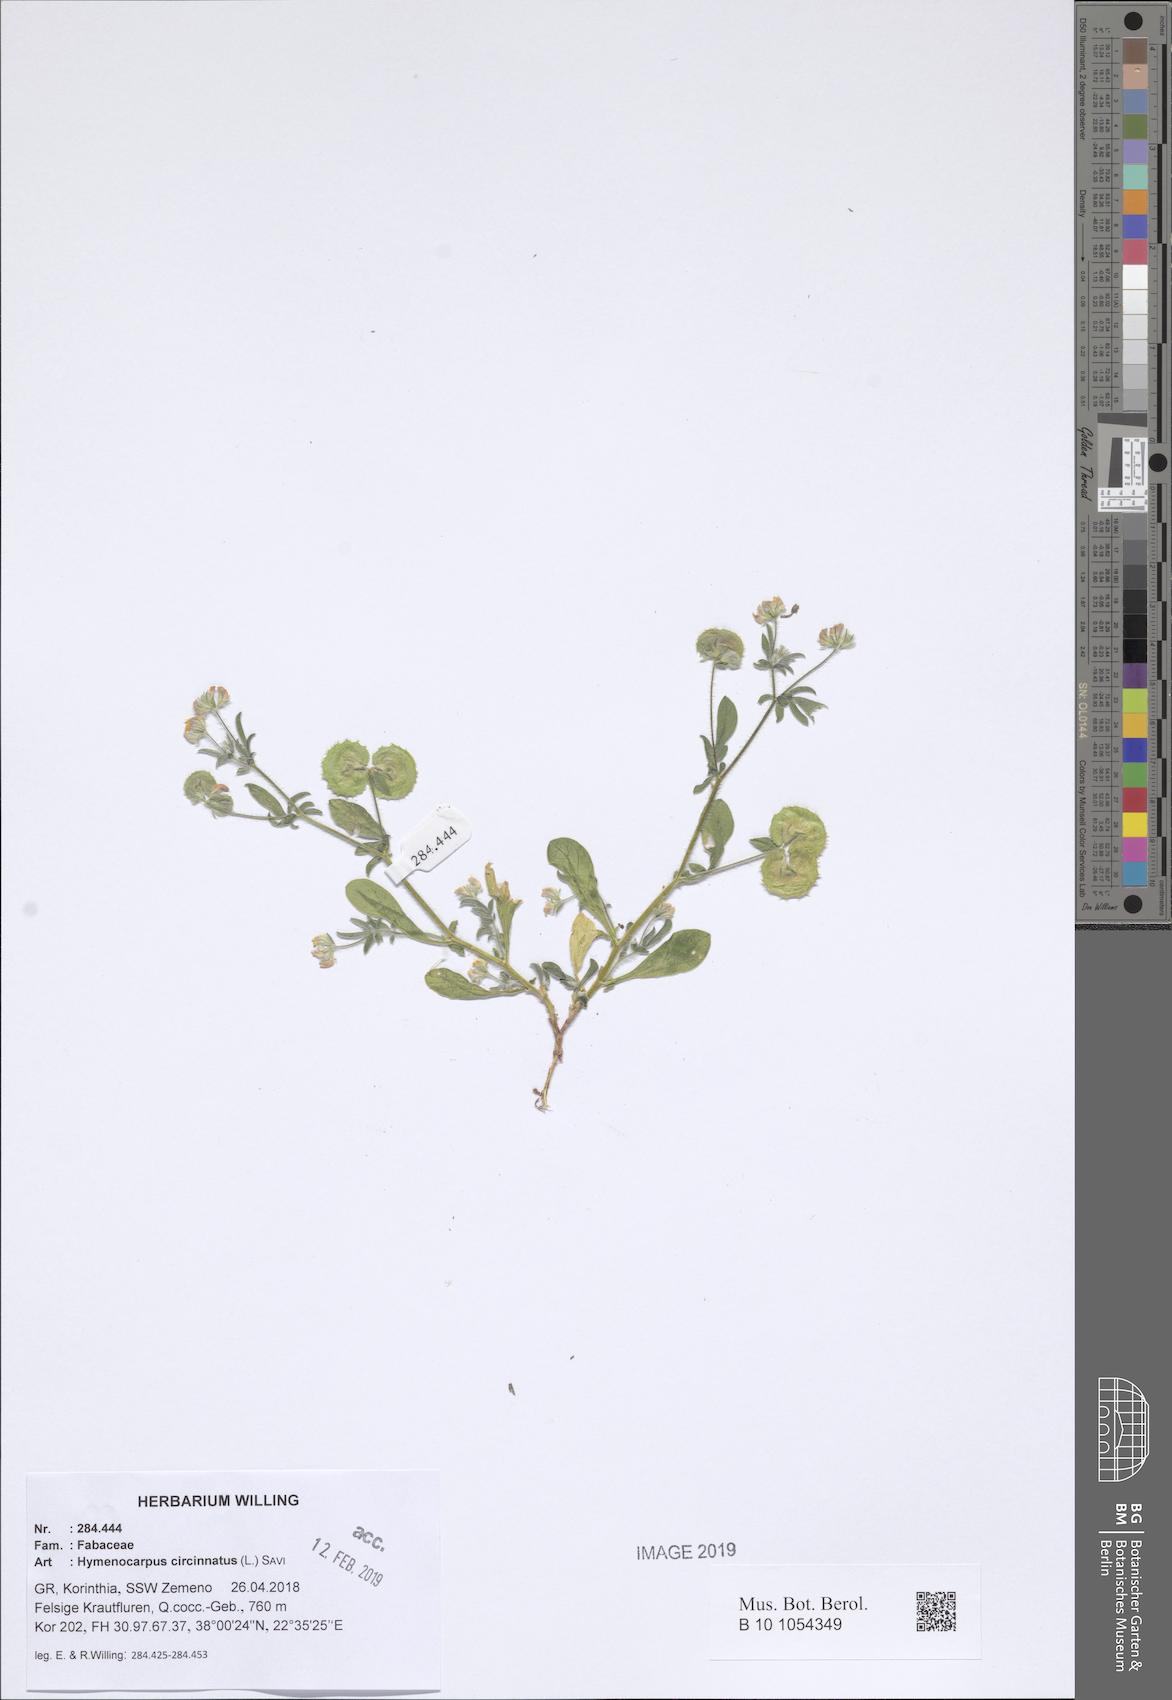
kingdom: Plantae
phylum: Tracheophyta
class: Magnoliopsida
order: Fabales
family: Fabaceae
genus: Anthyllis
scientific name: Anthyllis circinnata
